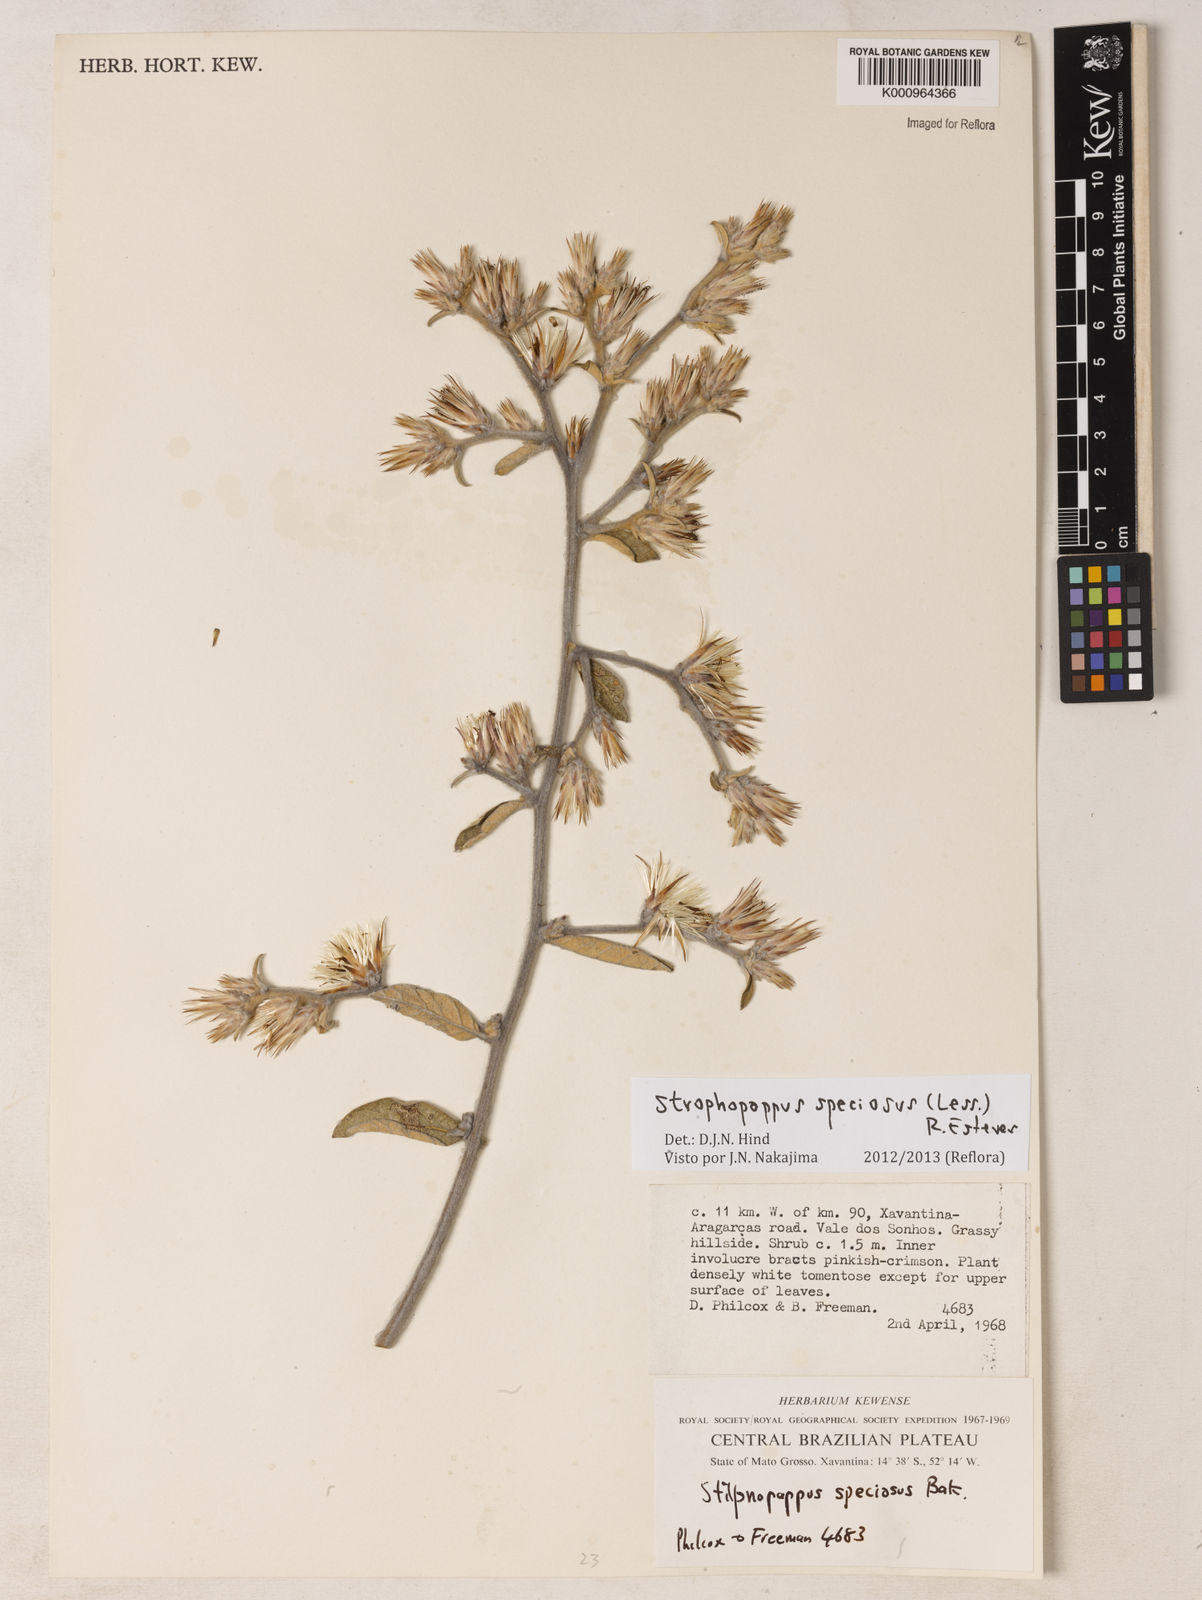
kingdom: Plantae
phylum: Tracheophyta
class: Magnoliopsida
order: Asterales
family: Asteraceae
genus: Stilpnopappus
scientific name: Stilpnopappus speciosus
